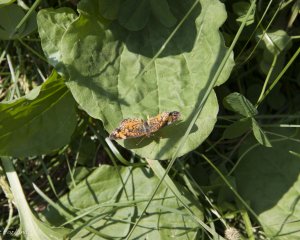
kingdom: Animalia
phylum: Arthropoda
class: Insecta
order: Lepidoptera
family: Nymphalidae
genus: Phyciodes
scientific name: Phyciodes
